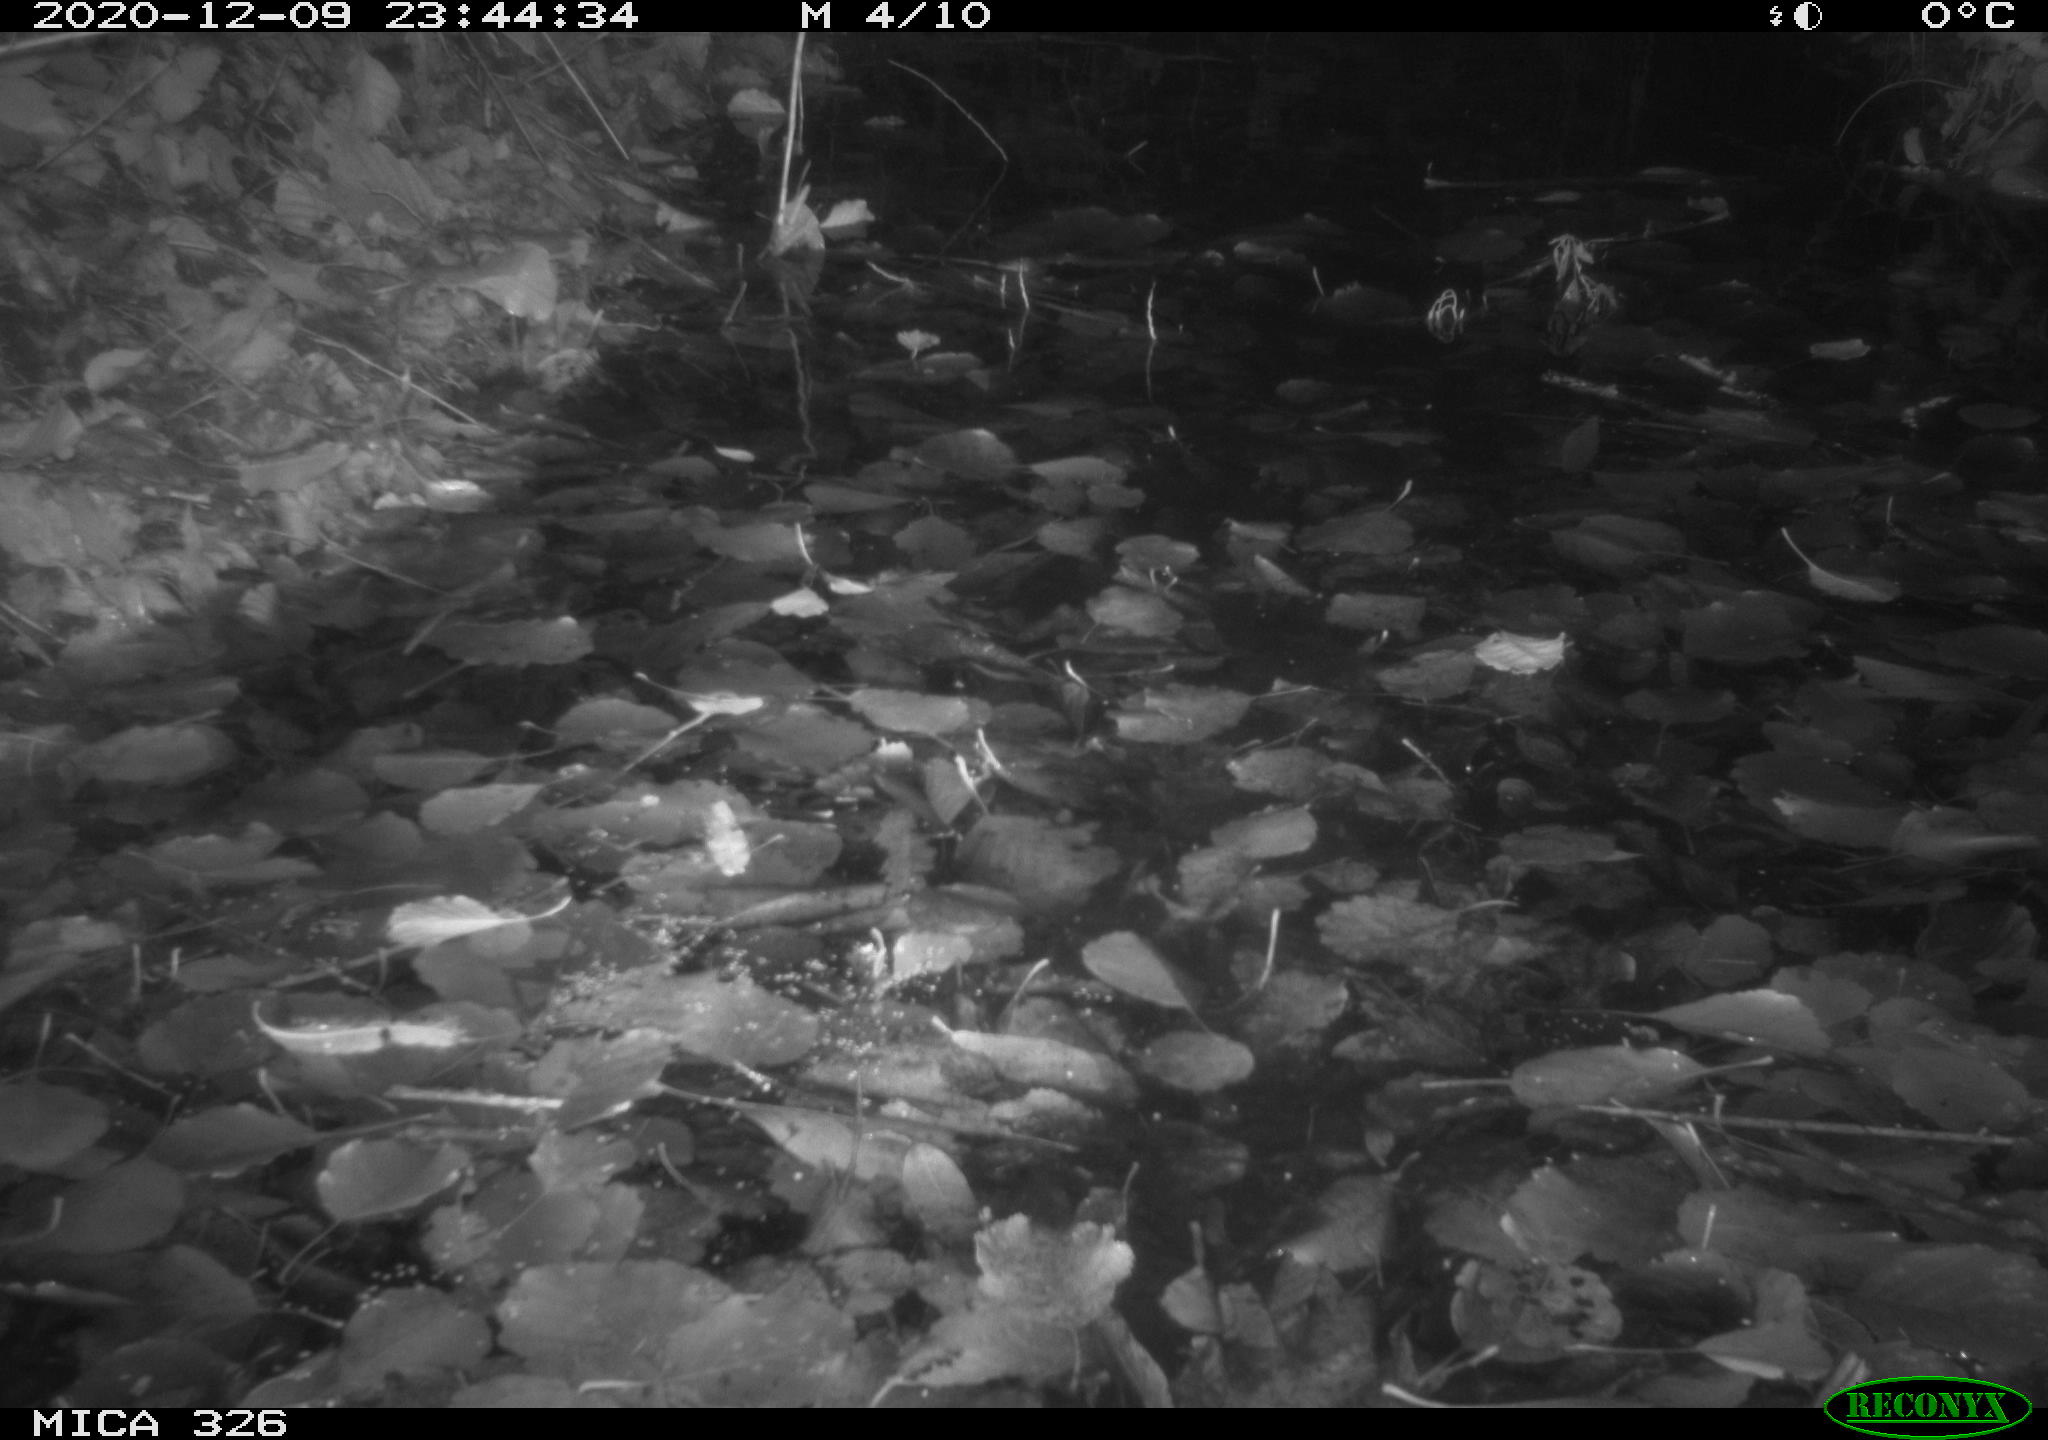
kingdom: Animalia
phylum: Chordata
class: Mammalia
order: Rodentia
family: Myocastoridae
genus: Myocastor
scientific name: Myocastor coypus
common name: Coypu
